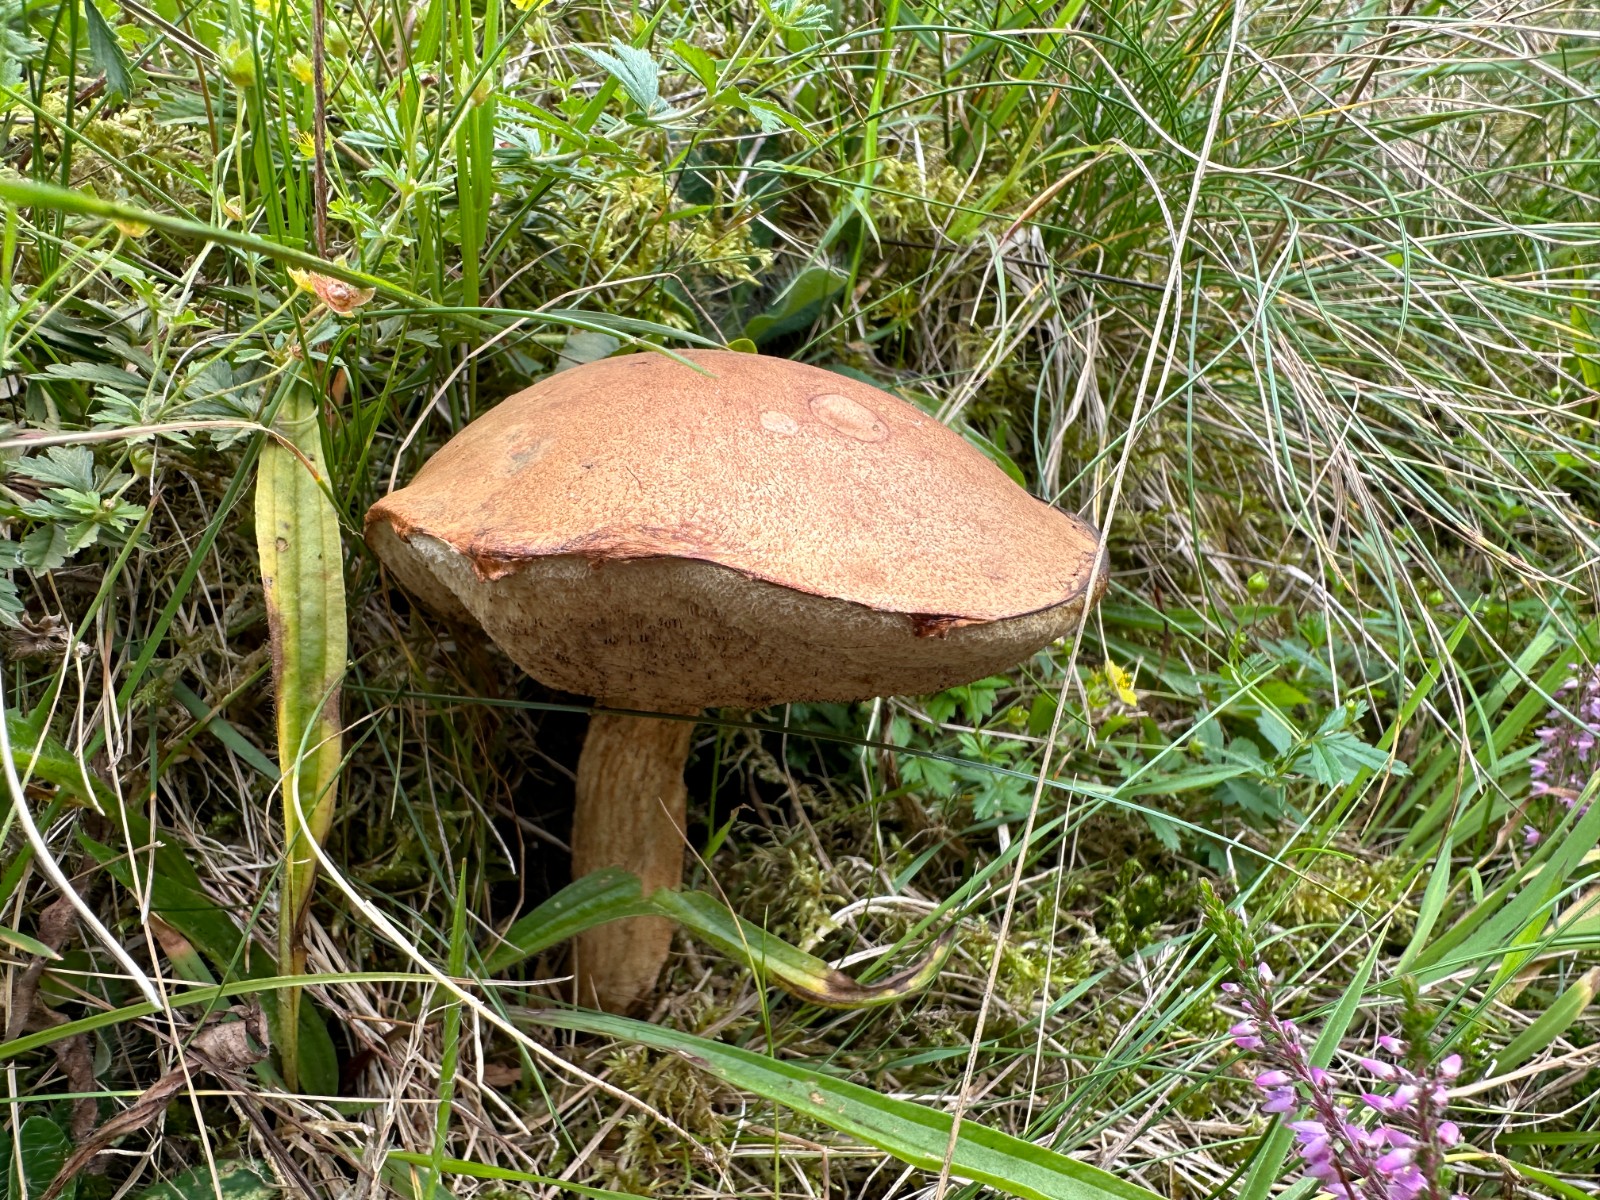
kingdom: Fungi
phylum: Basidiomycota
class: Agaricomycetes
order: Boletales
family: Boletaceae
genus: Leccinum
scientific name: Leccinum cyaneobasileucum
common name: almindelig skælrørhat
